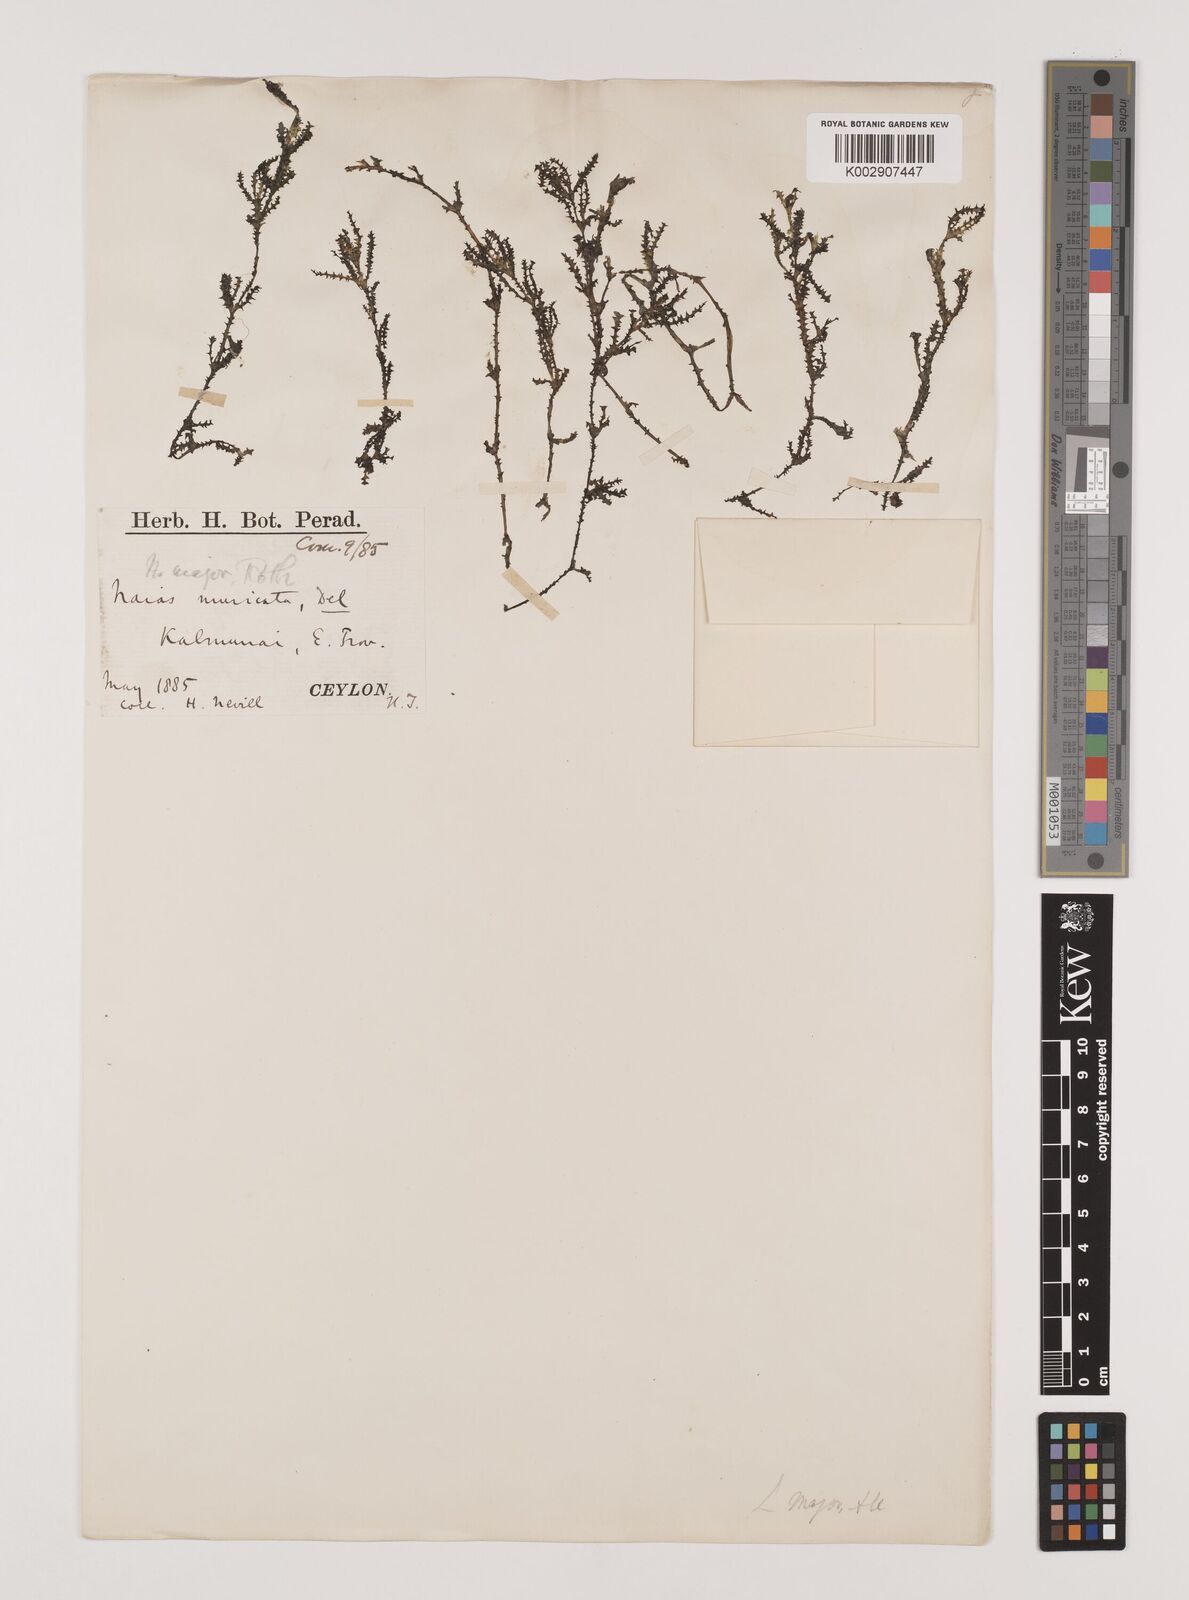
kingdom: Plantae
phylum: Tracheophyta
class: Liliopsida
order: Alismatales
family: Hydrocharitaceae
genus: Najas
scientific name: Najas marina
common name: Holly-leaved naiad
